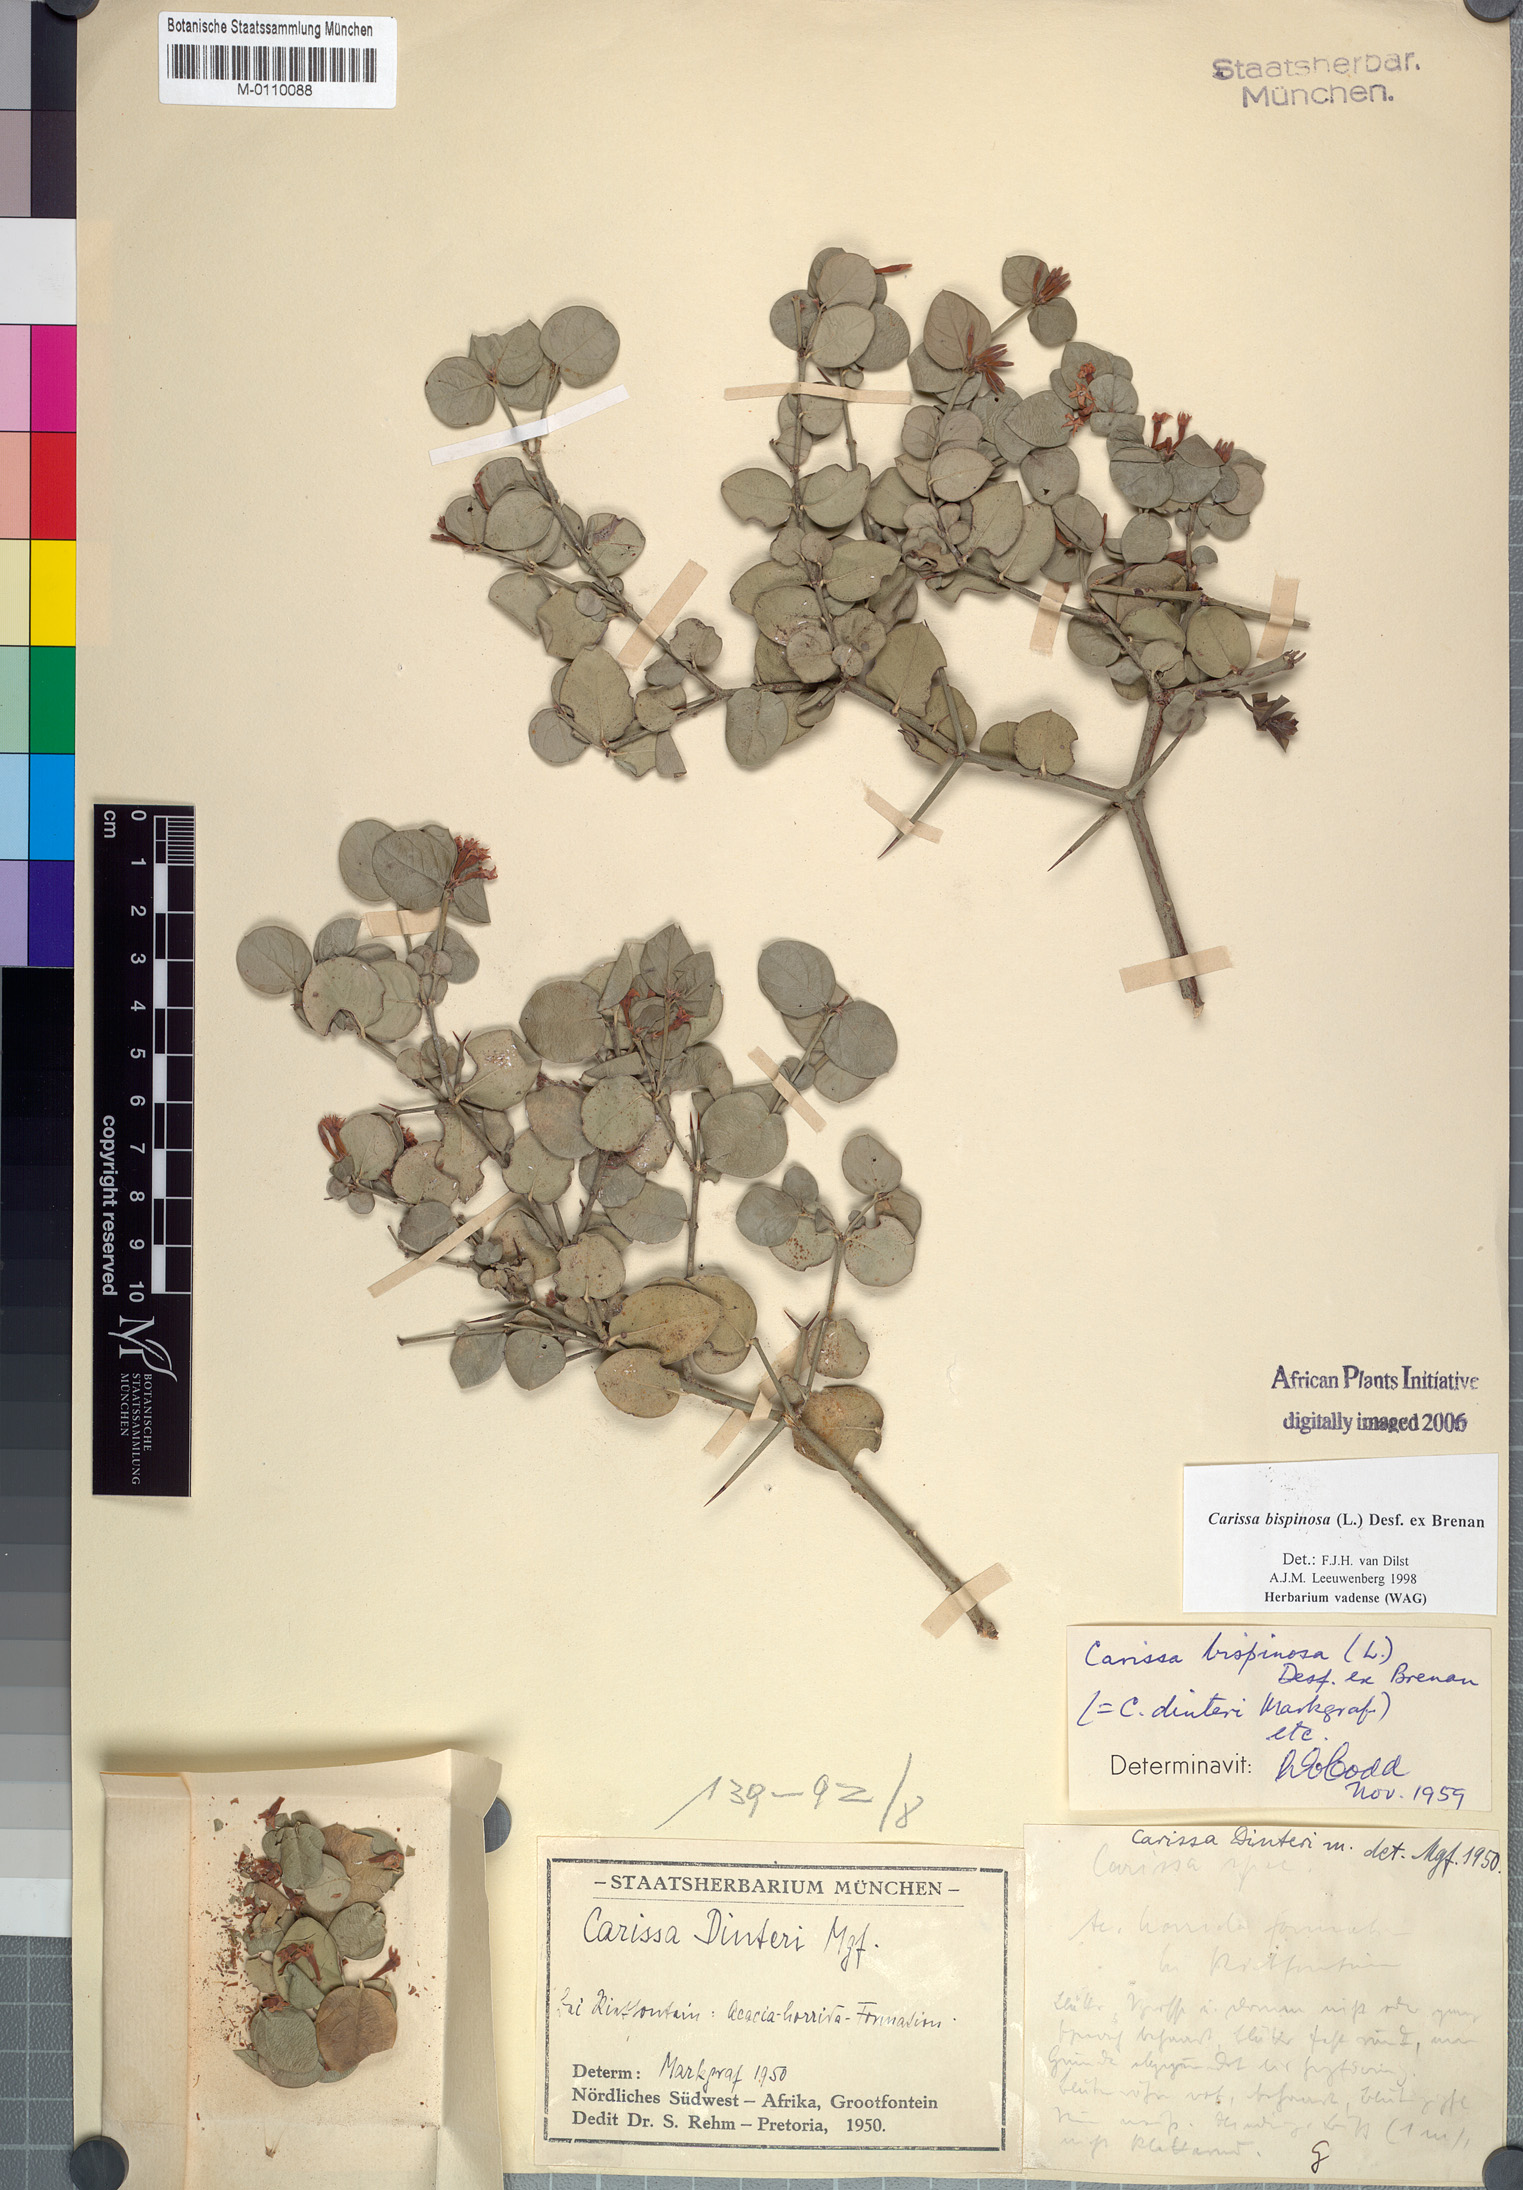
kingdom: Plantae
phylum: Tracheophyta
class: Magnoliopsida
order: Gentianales
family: Apocynaceae
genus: Carissa
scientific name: Carissa bispinosa
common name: Forest num-num
